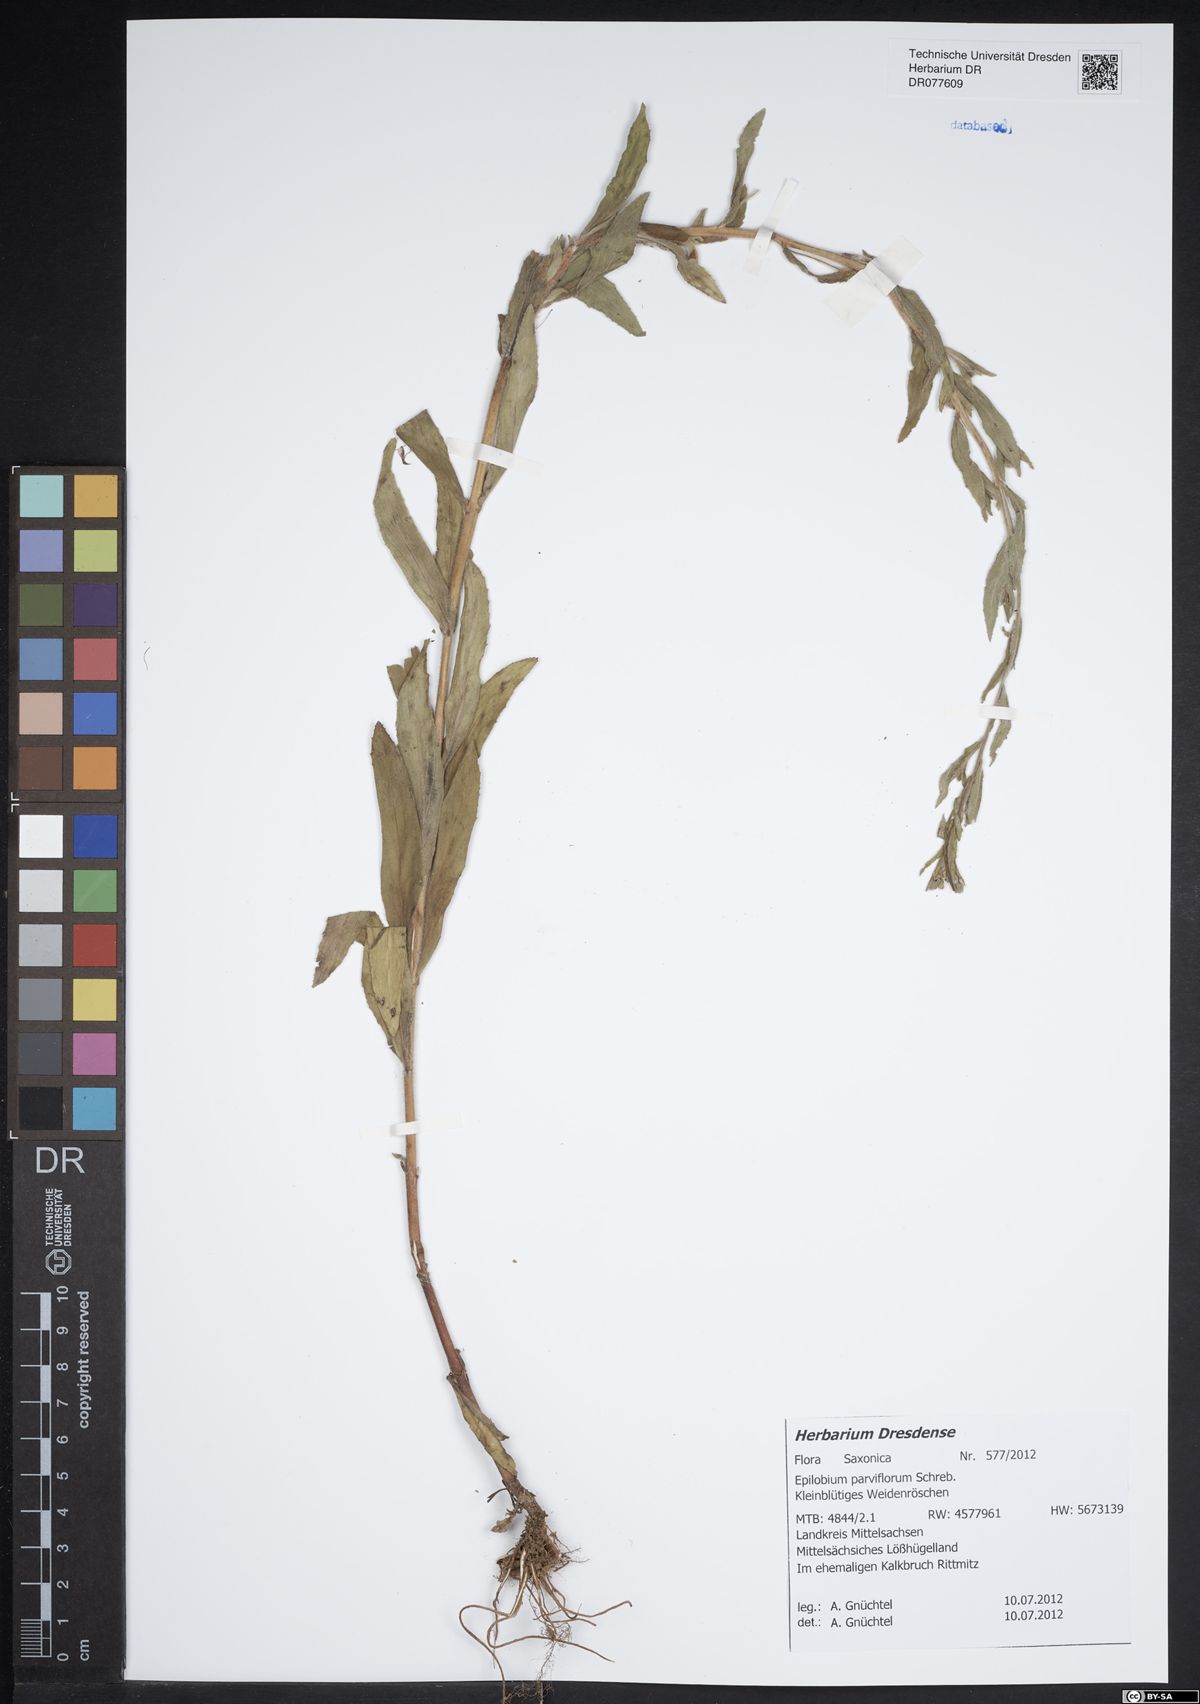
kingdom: Plantae
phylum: Tracheophyta
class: Magnoliopsida
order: Myrtales
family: Onagraceae
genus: Epilobium
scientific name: Epilobium parviflorum
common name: Hoary willowherb
